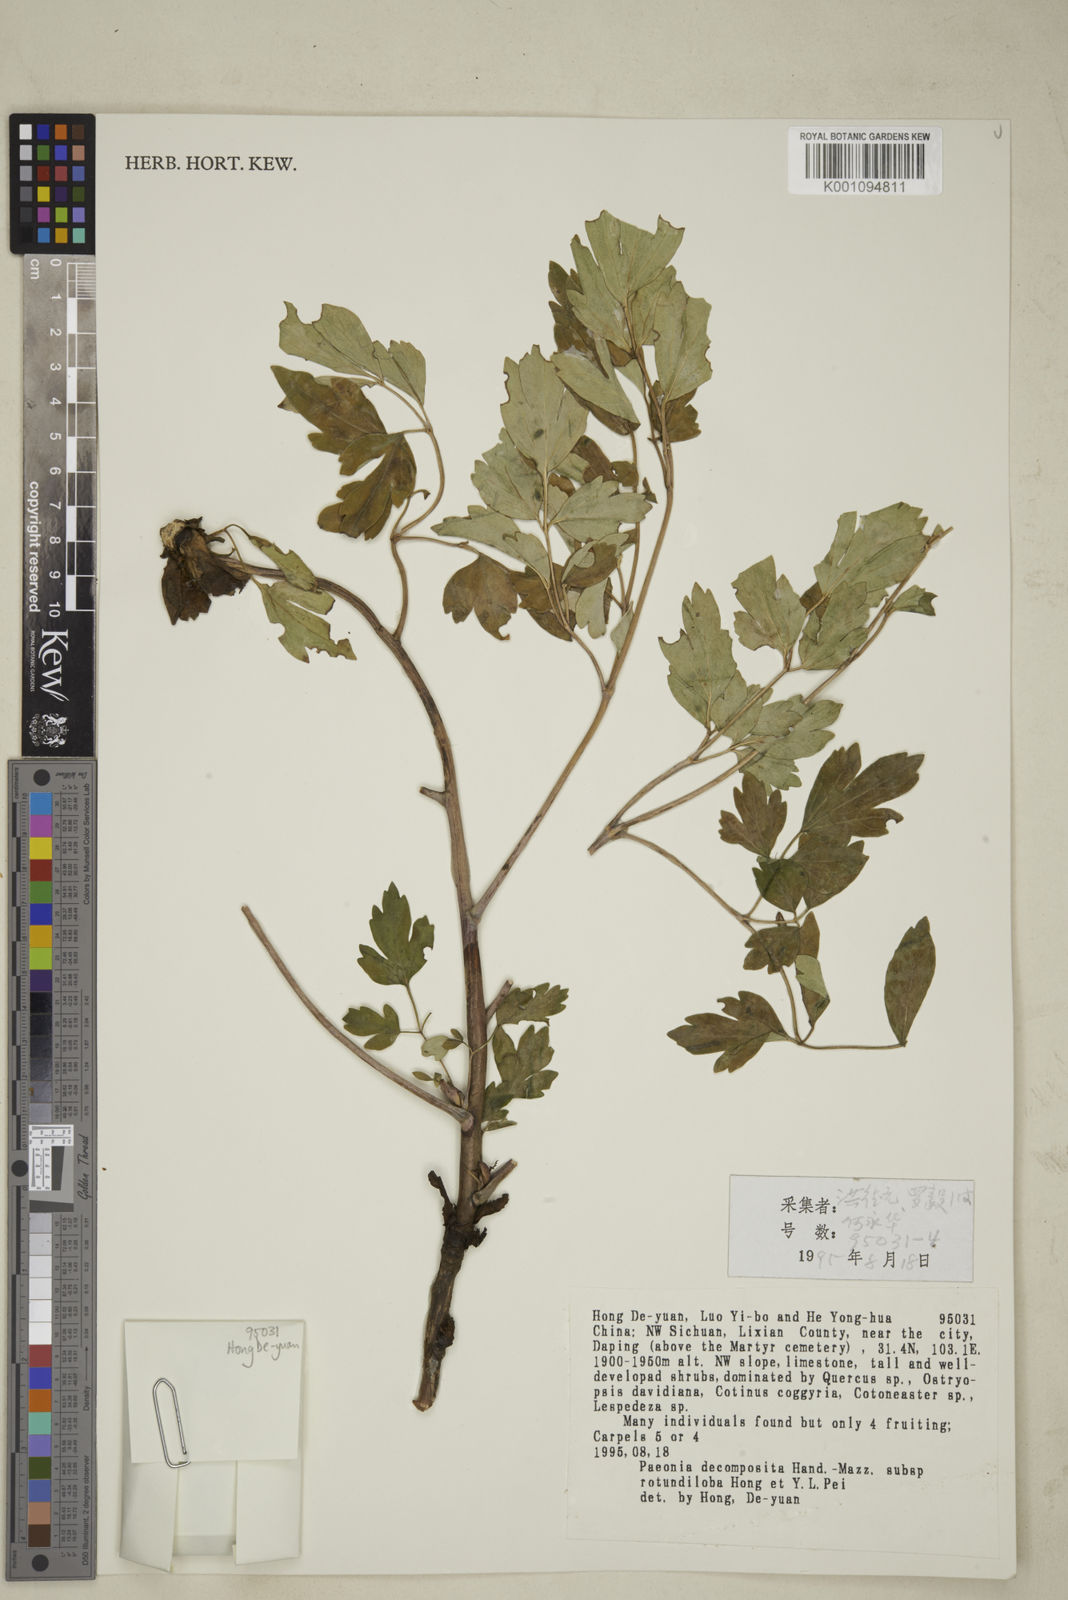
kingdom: Plantae
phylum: Tracheophyta
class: Magnoliopsida
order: Saxifragales
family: Paeoniaceae
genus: Paeonia
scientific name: Paeonia suffruticosa
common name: Moutan peony
